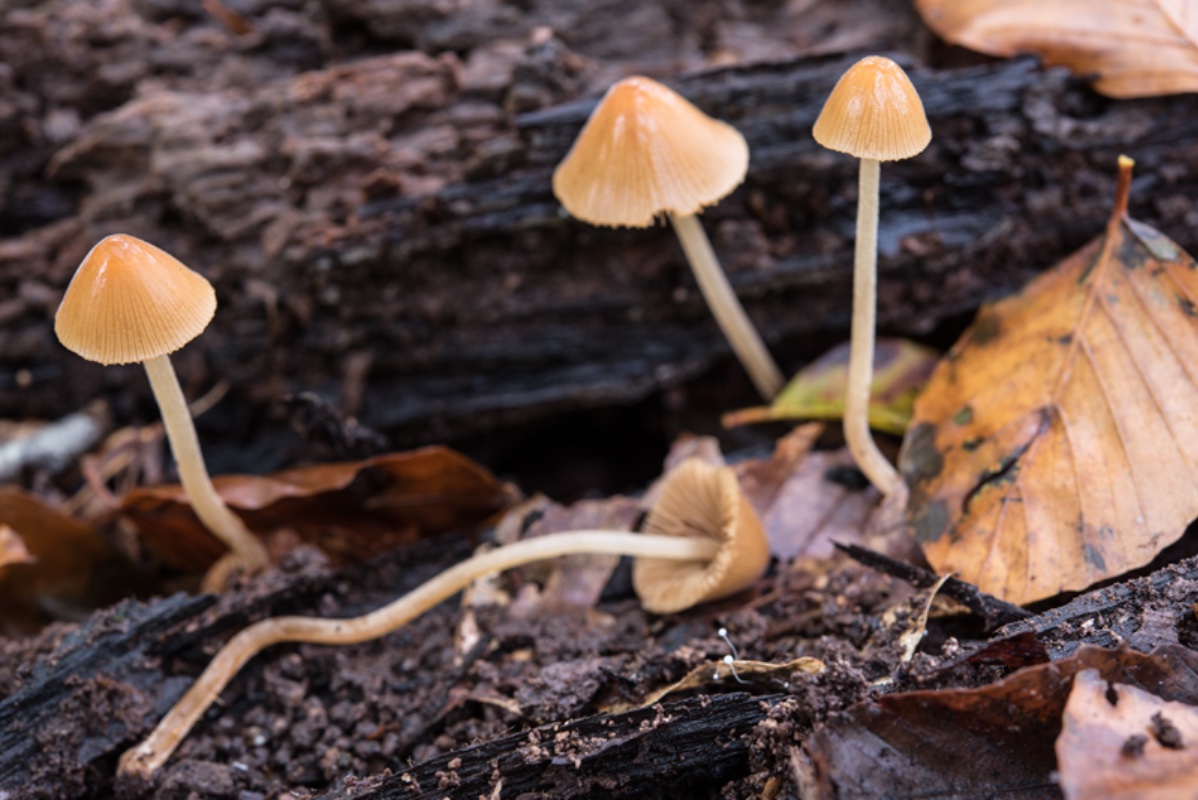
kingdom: Fungi
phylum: Basidiomycota
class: Agaricomycetes
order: Agaricales
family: Bolbitiaceae
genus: Conocybe
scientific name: Conocybe subpubescens
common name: krat-keglehat
